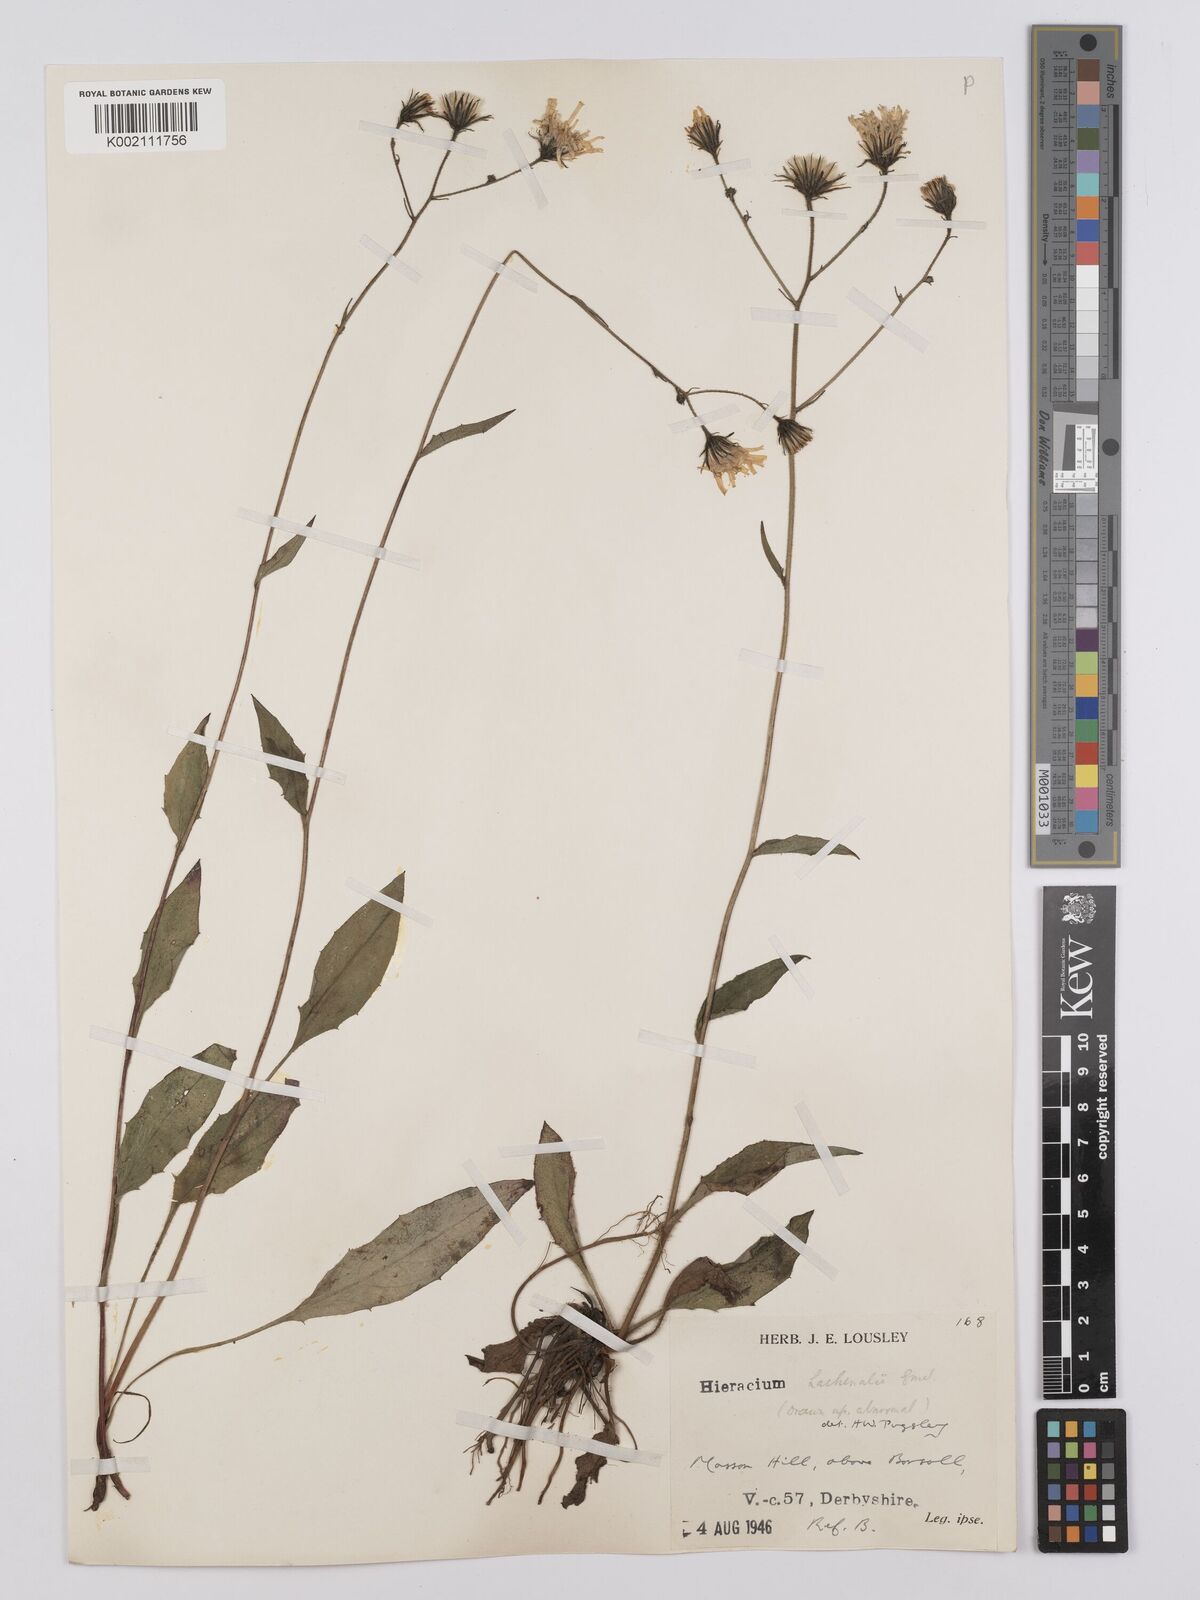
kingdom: Plantae
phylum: Tracheophyta
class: Magnoliopsida
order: Asterales
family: Asteraceae
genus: Hieracium
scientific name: Hieracium lachenalii
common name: Common hawkweed
